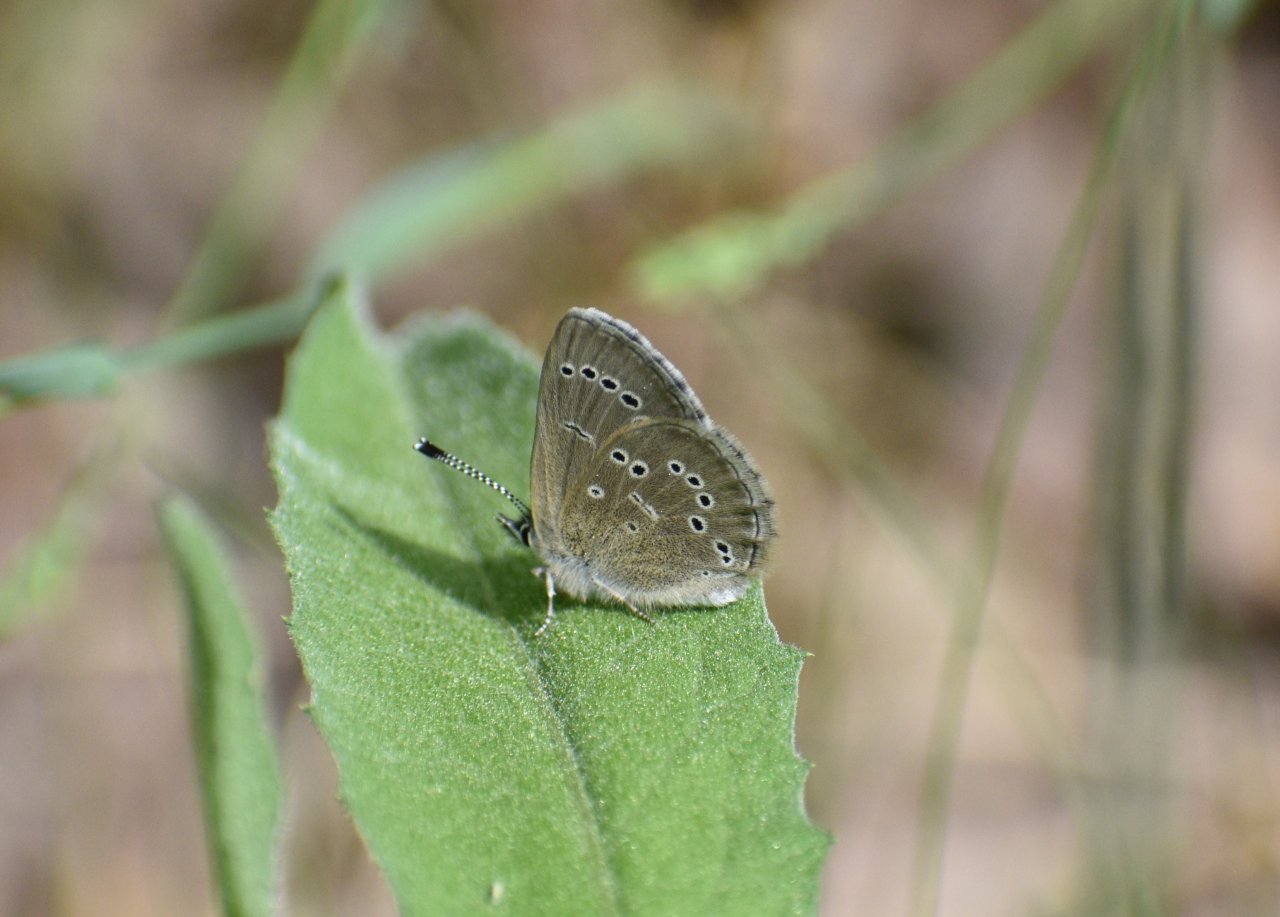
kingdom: Animalia
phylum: Arthropoda
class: Insecta
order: Lepidoptera
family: Lycaenidae
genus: Glaucopsyche
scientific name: Glaucopsyche lygdamus
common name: Silvery Blue
